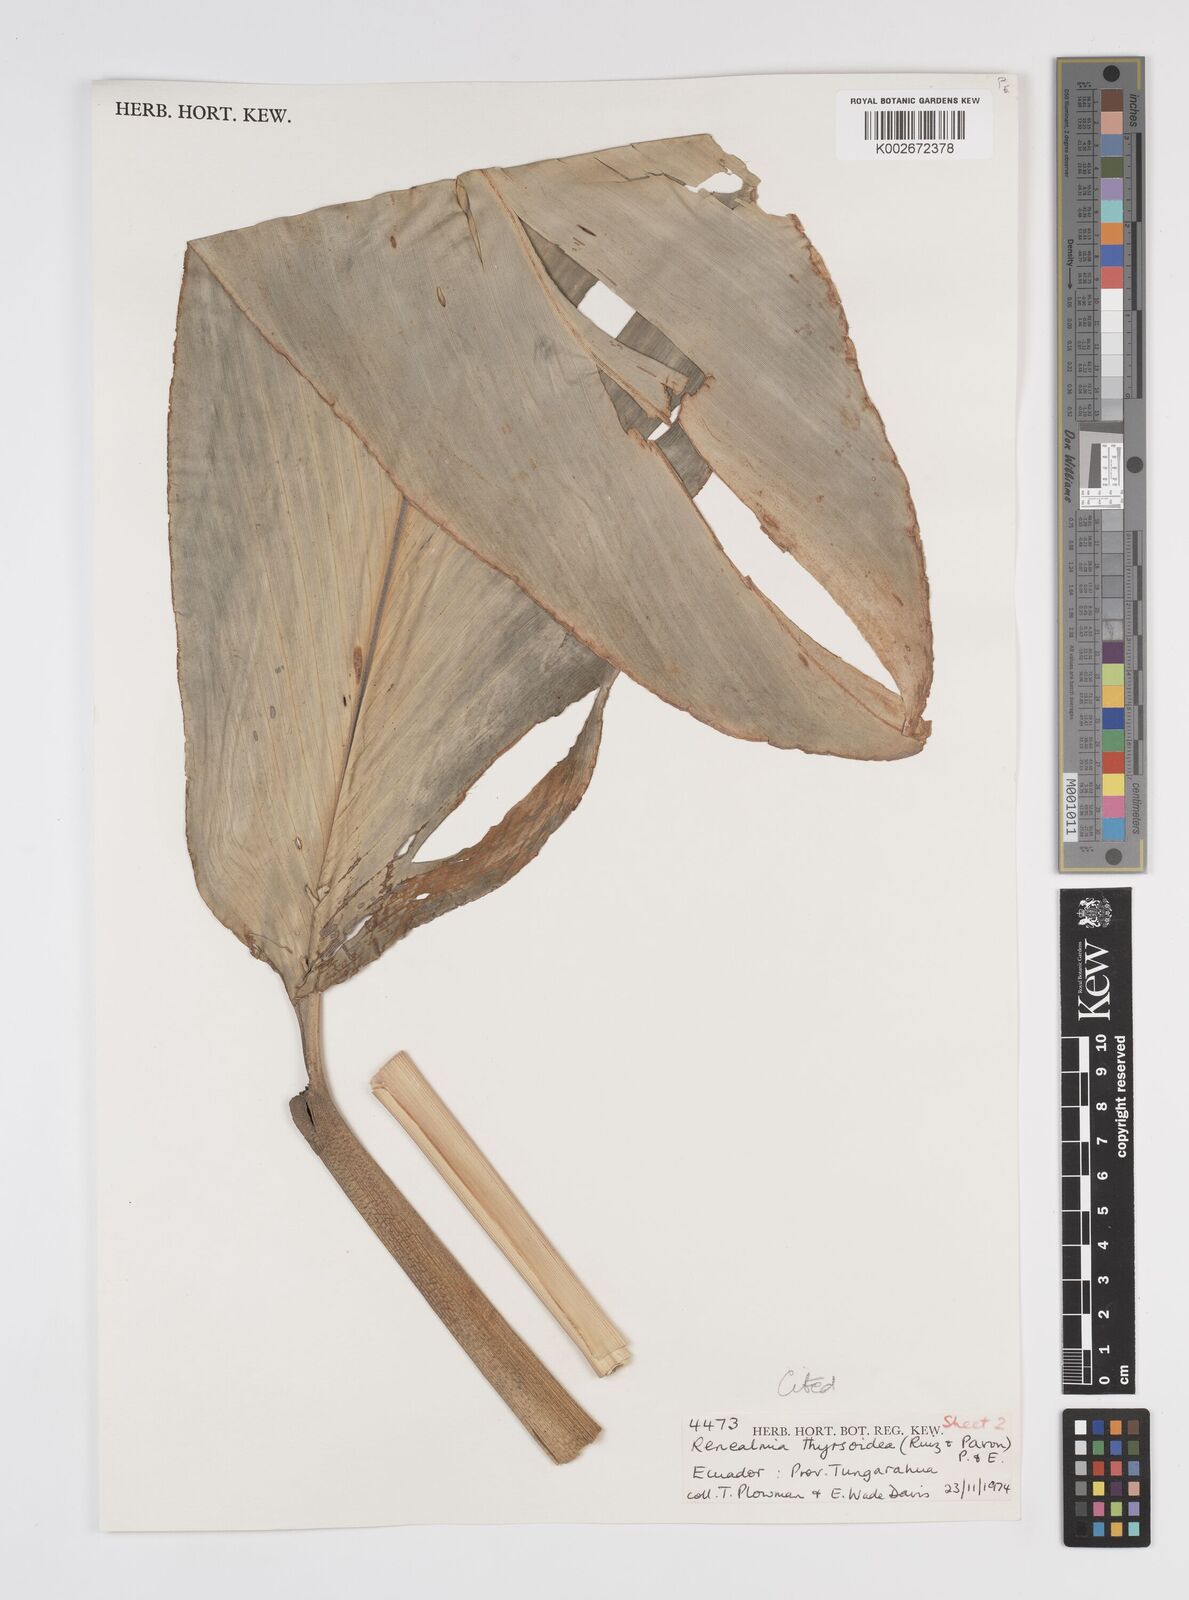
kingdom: Plantae
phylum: Tracheophyta
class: Liliopsida
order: Zingiberales
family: Zingiberaceae
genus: Renealmia
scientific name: Renealmia thyrsoidea
